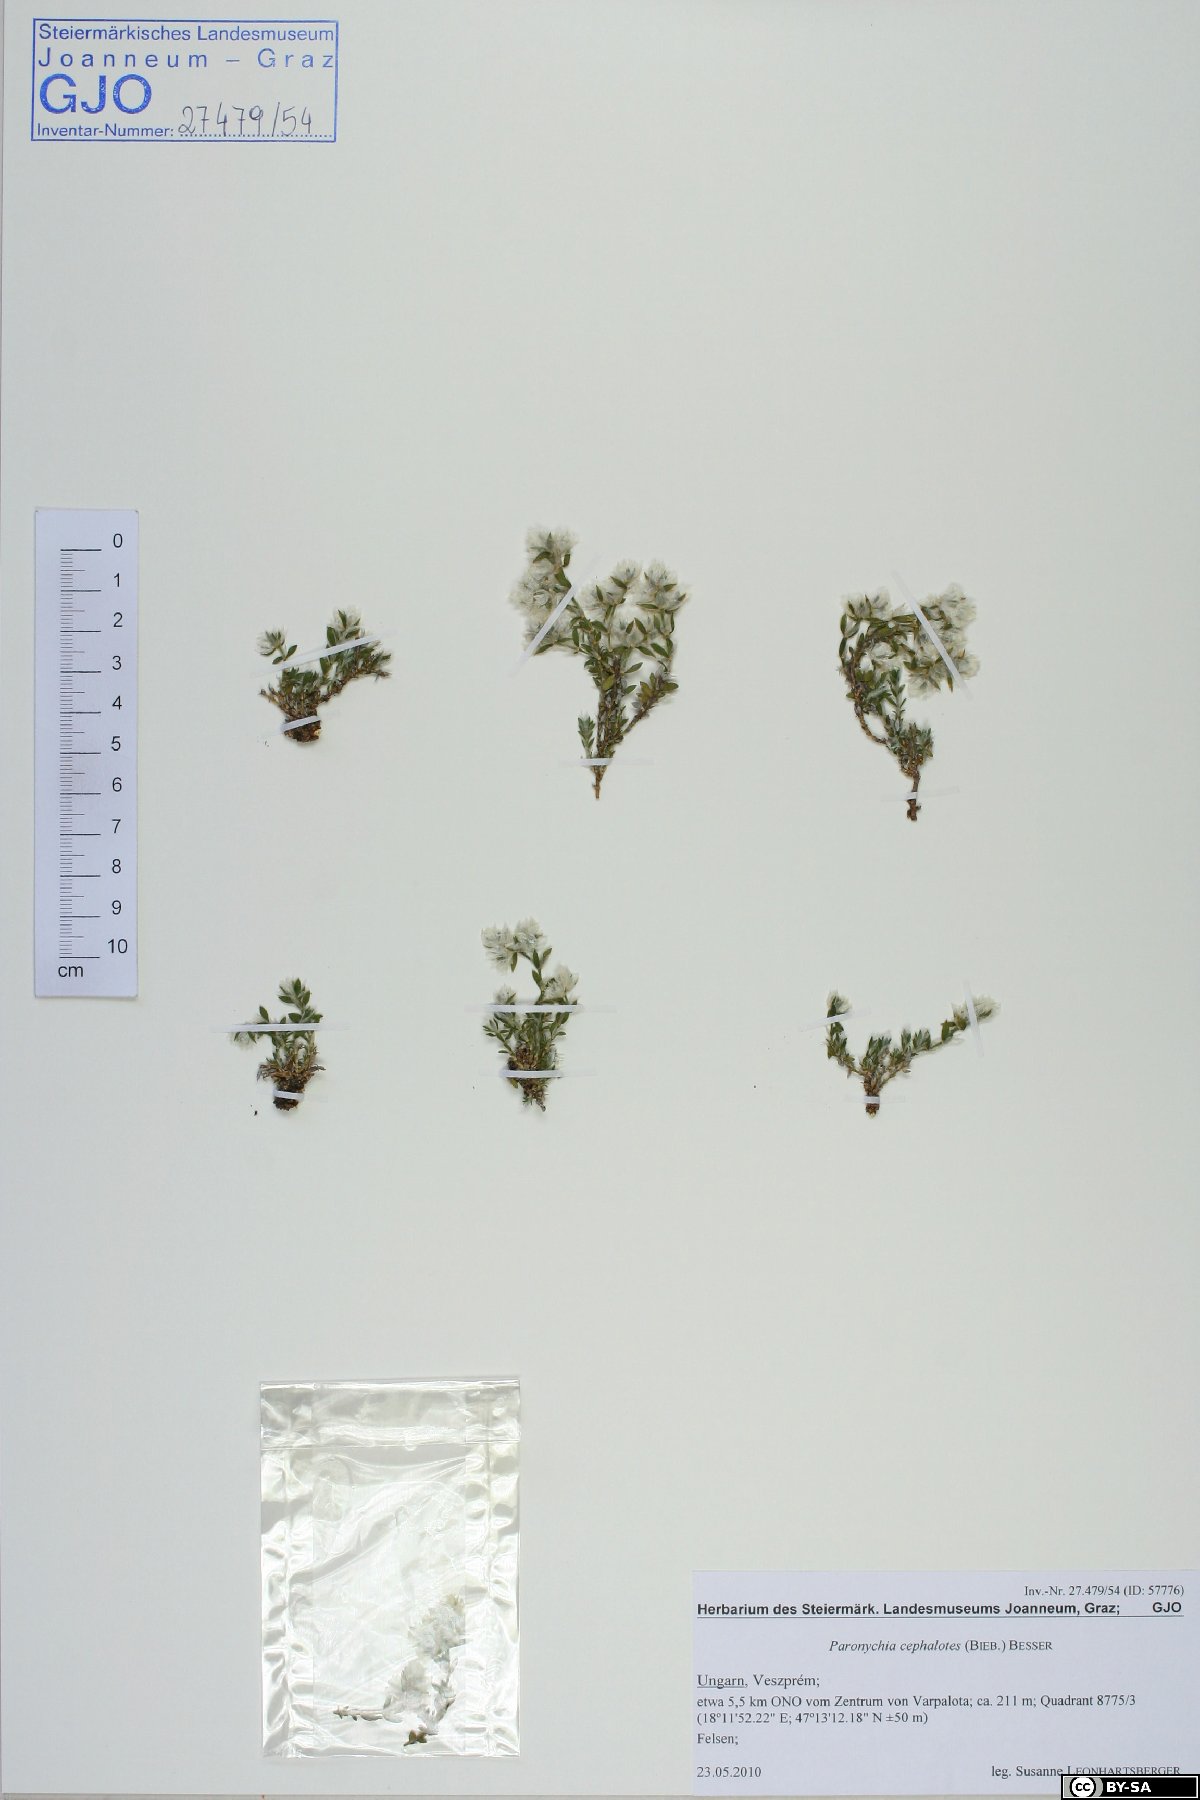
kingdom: Plantae
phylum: Tracheophyta
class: Magnoliopsida
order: Caryophyllales
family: Caryophyllaceae
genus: Paronychia
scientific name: Paronychia cephalotes
